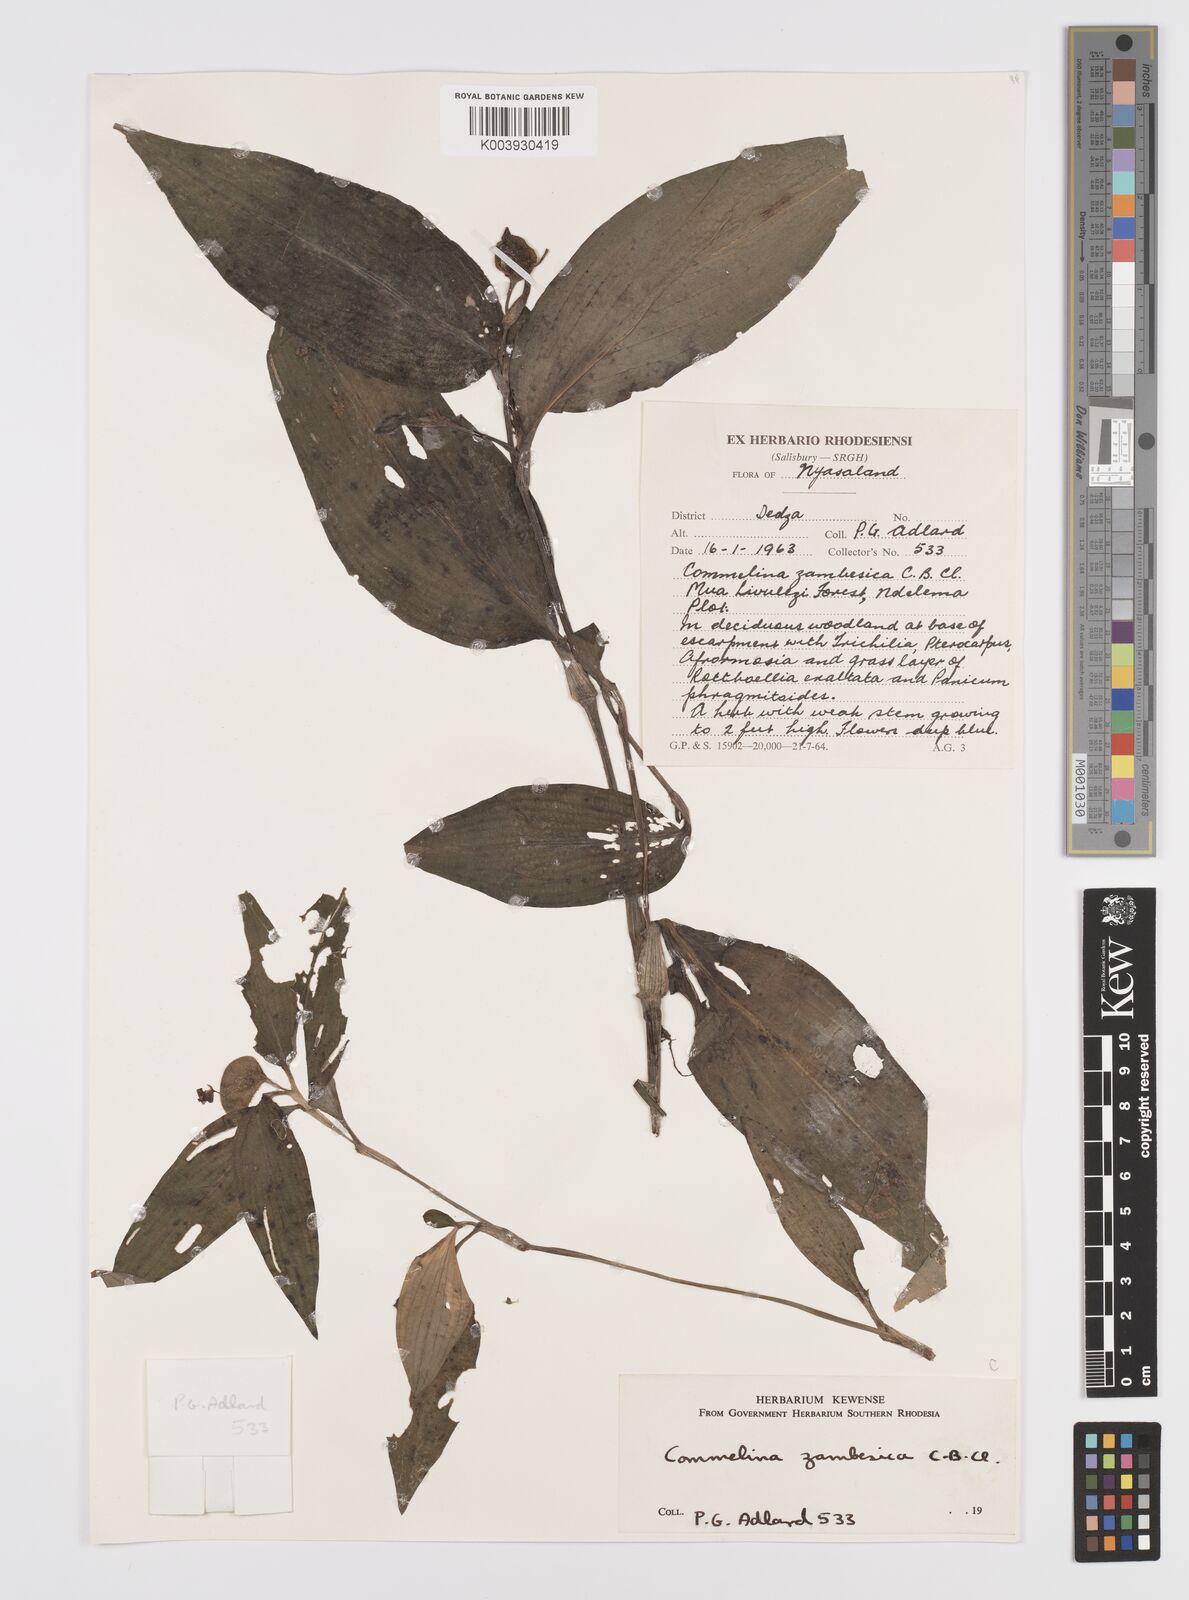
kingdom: Plantae
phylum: Tracheophyta
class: Liliopsida
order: Commelinales
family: Commelinaceae
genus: Commelina
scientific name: Commelina zambesica
